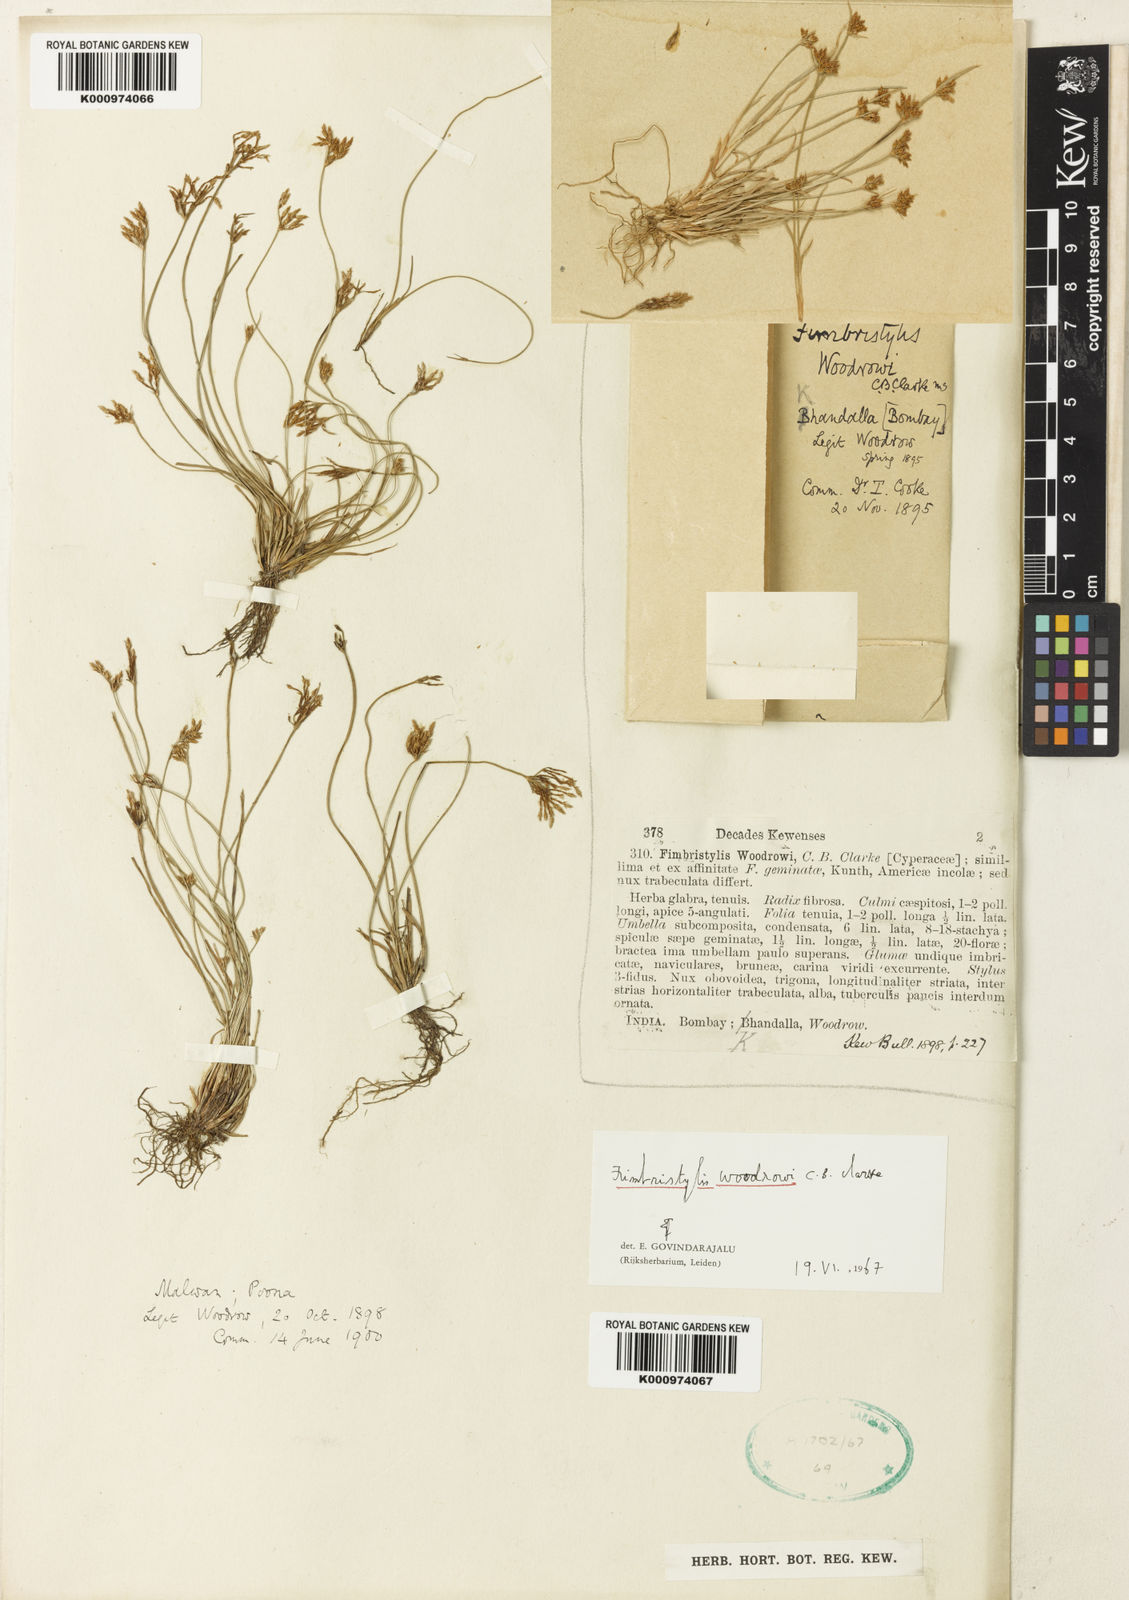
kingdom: Plantae
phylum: Tracheophyta
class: Liliopsida
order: Poales
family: Cyperaceae
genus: Fimbristylis
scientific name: Fimbristylis woodrowii
